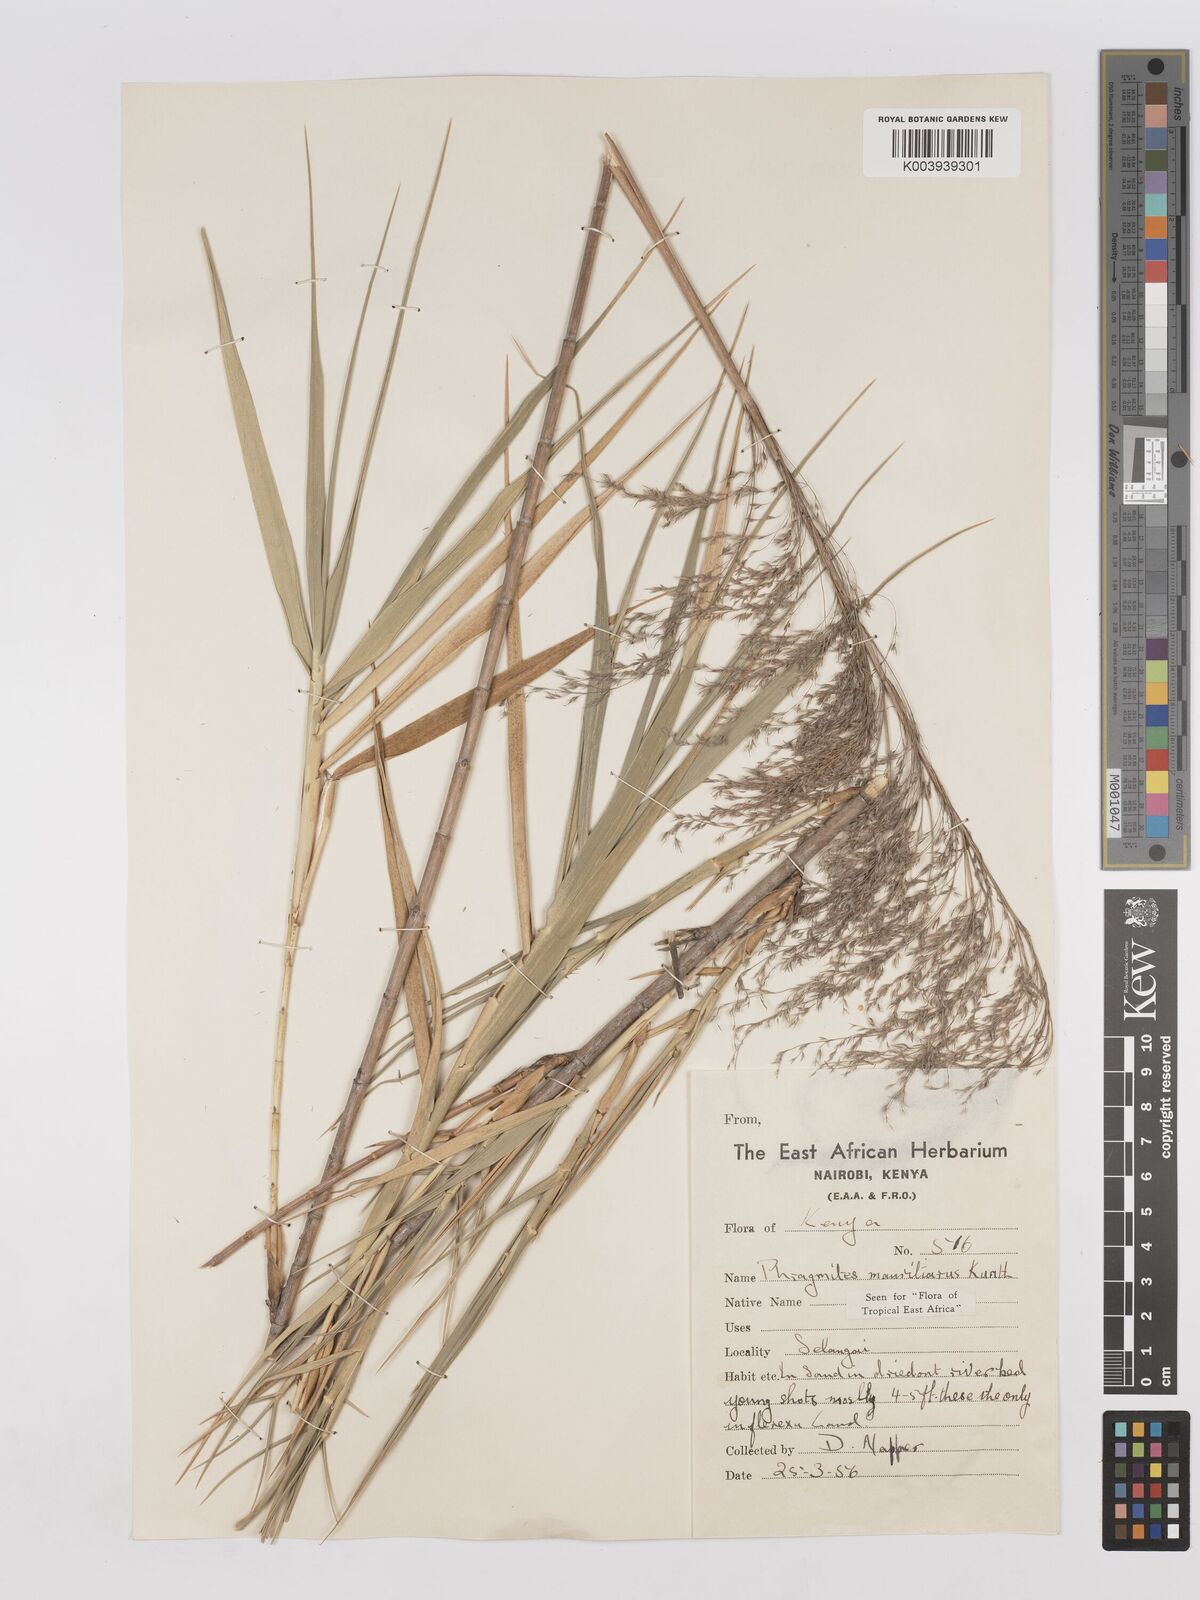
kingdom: Plantae
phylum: Tracheophyta
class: Liliopsida
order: Poales
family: Poaceae
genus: Phragmites
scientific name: Phragmites mauritianus
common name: Reed grass
